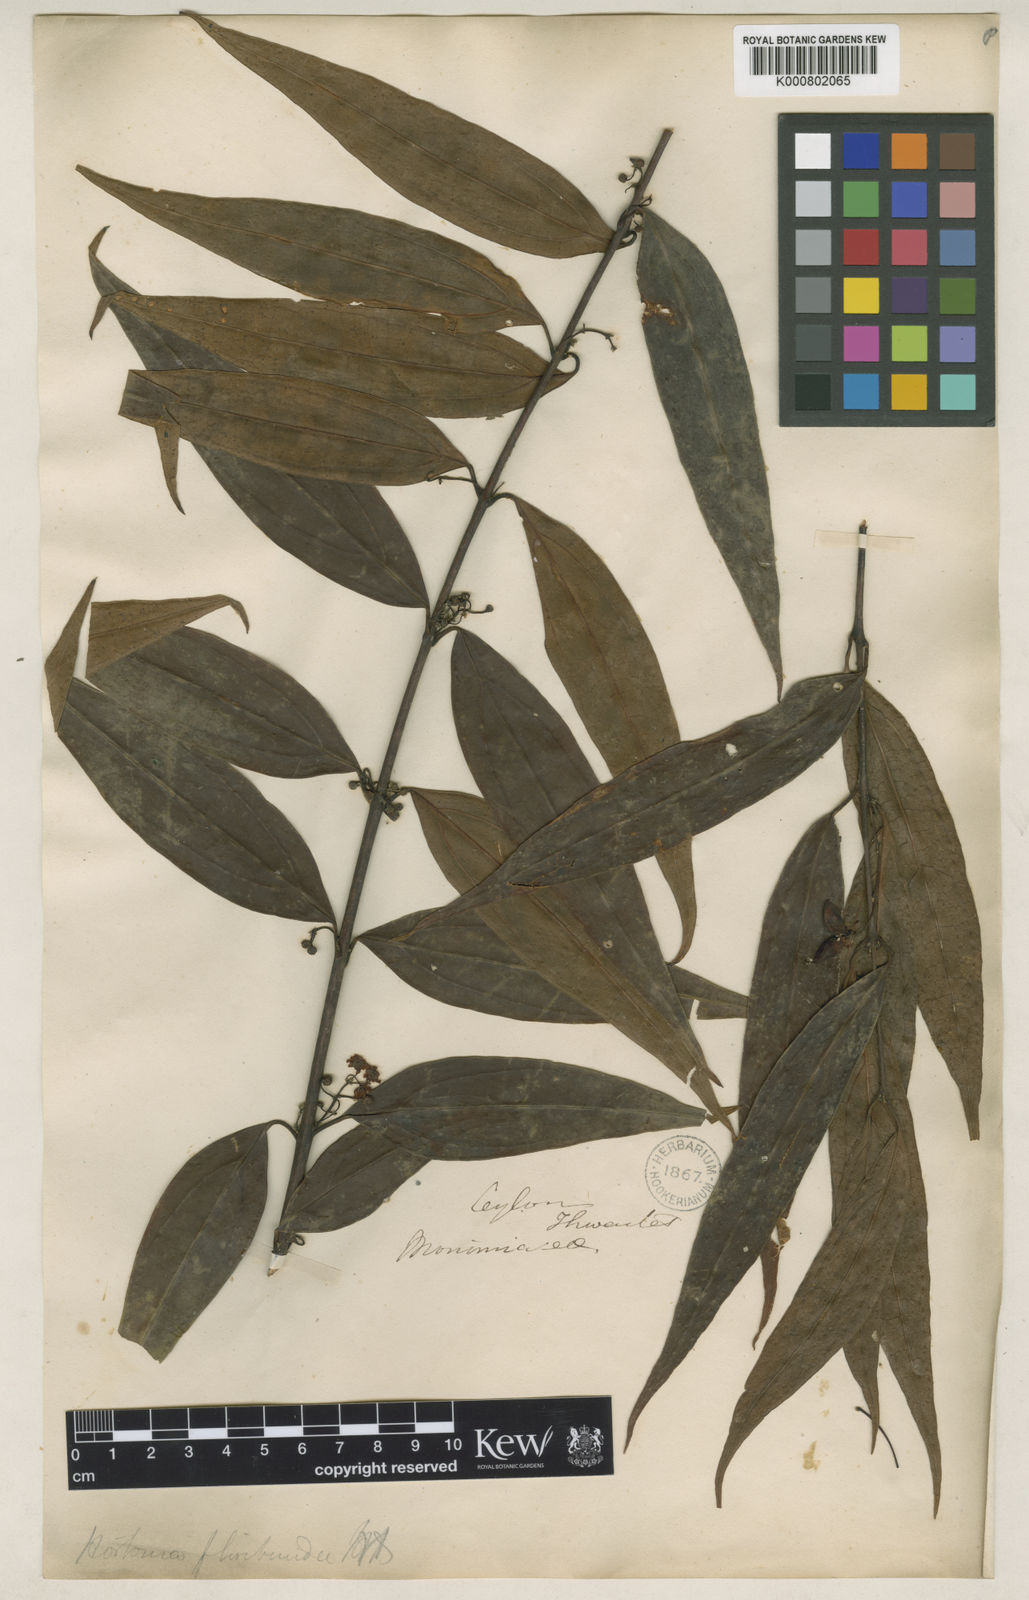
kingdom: Plantae
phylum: Tracheophyta
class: Magnoliopsida
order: Laurales
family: Monimiaceae
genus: Hortonia
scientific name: Hortonia angustifolia
